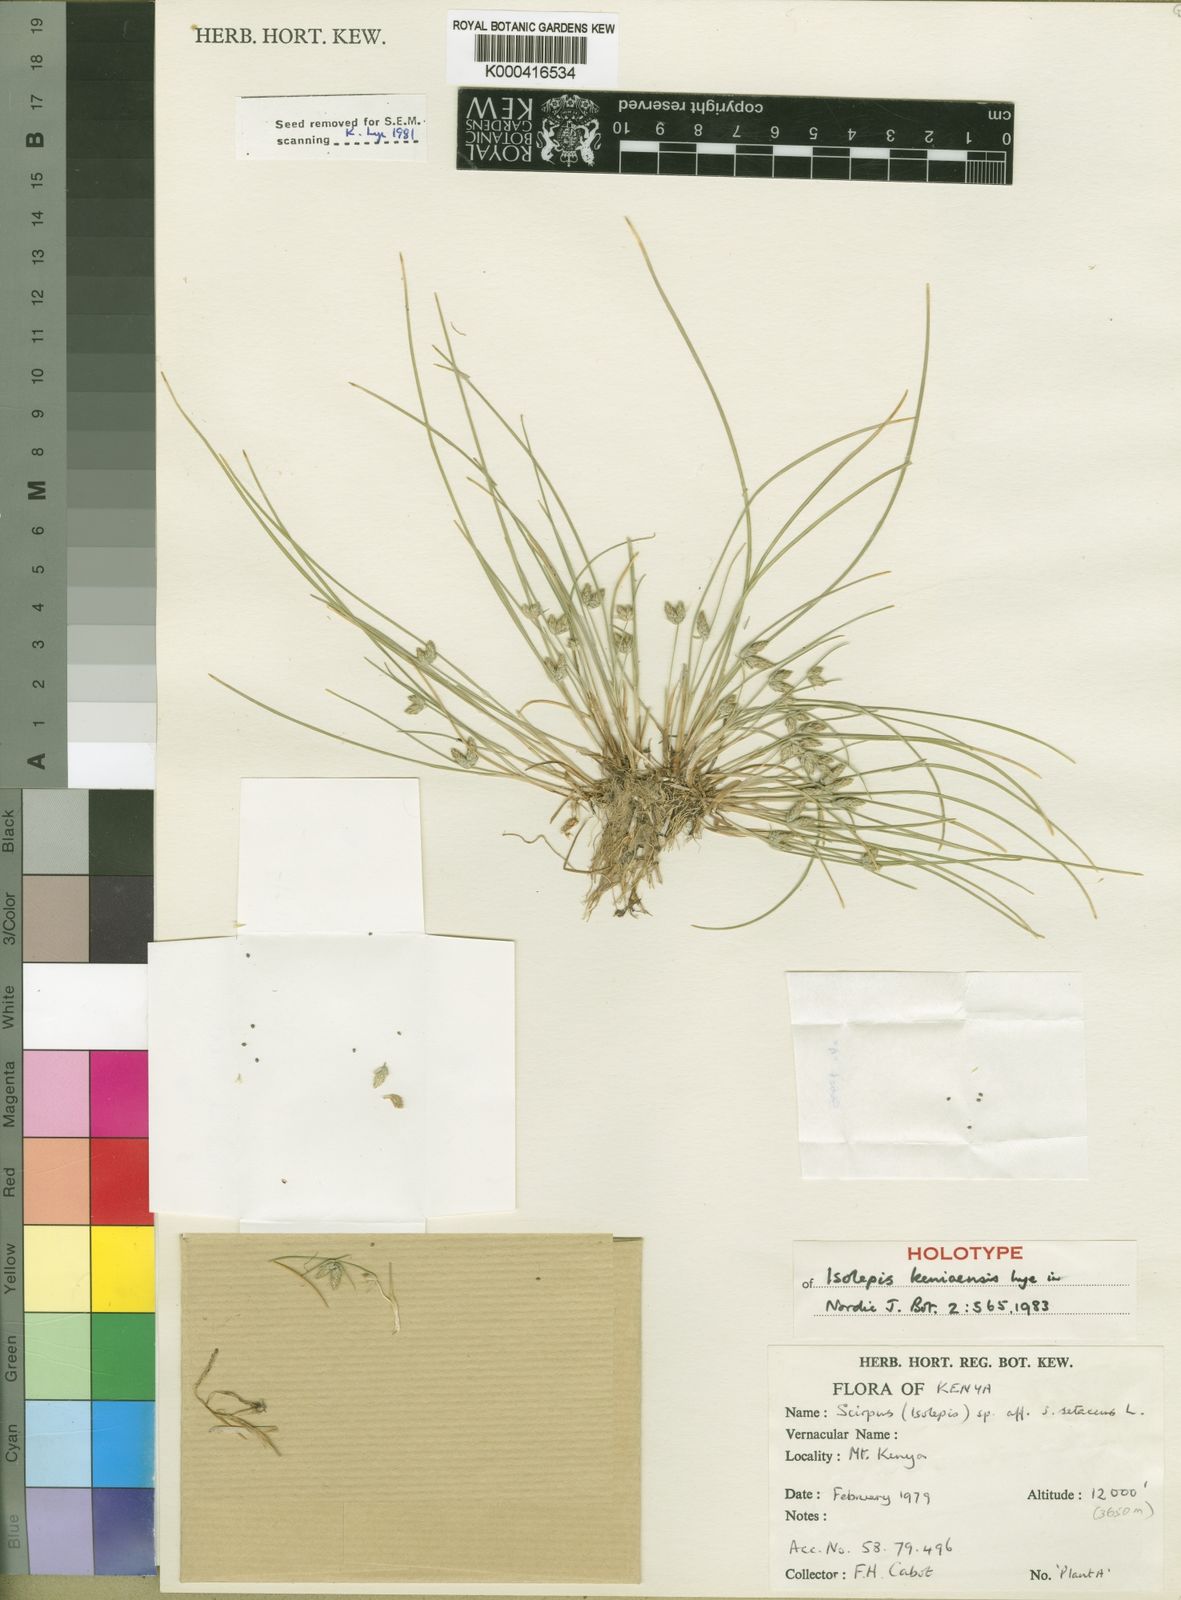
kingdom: Plantae
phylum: Tracheophyta
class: Liliopsida
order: Poales
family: Cyperaceae
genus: Isolepis
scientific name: Isolepis keniaensis
